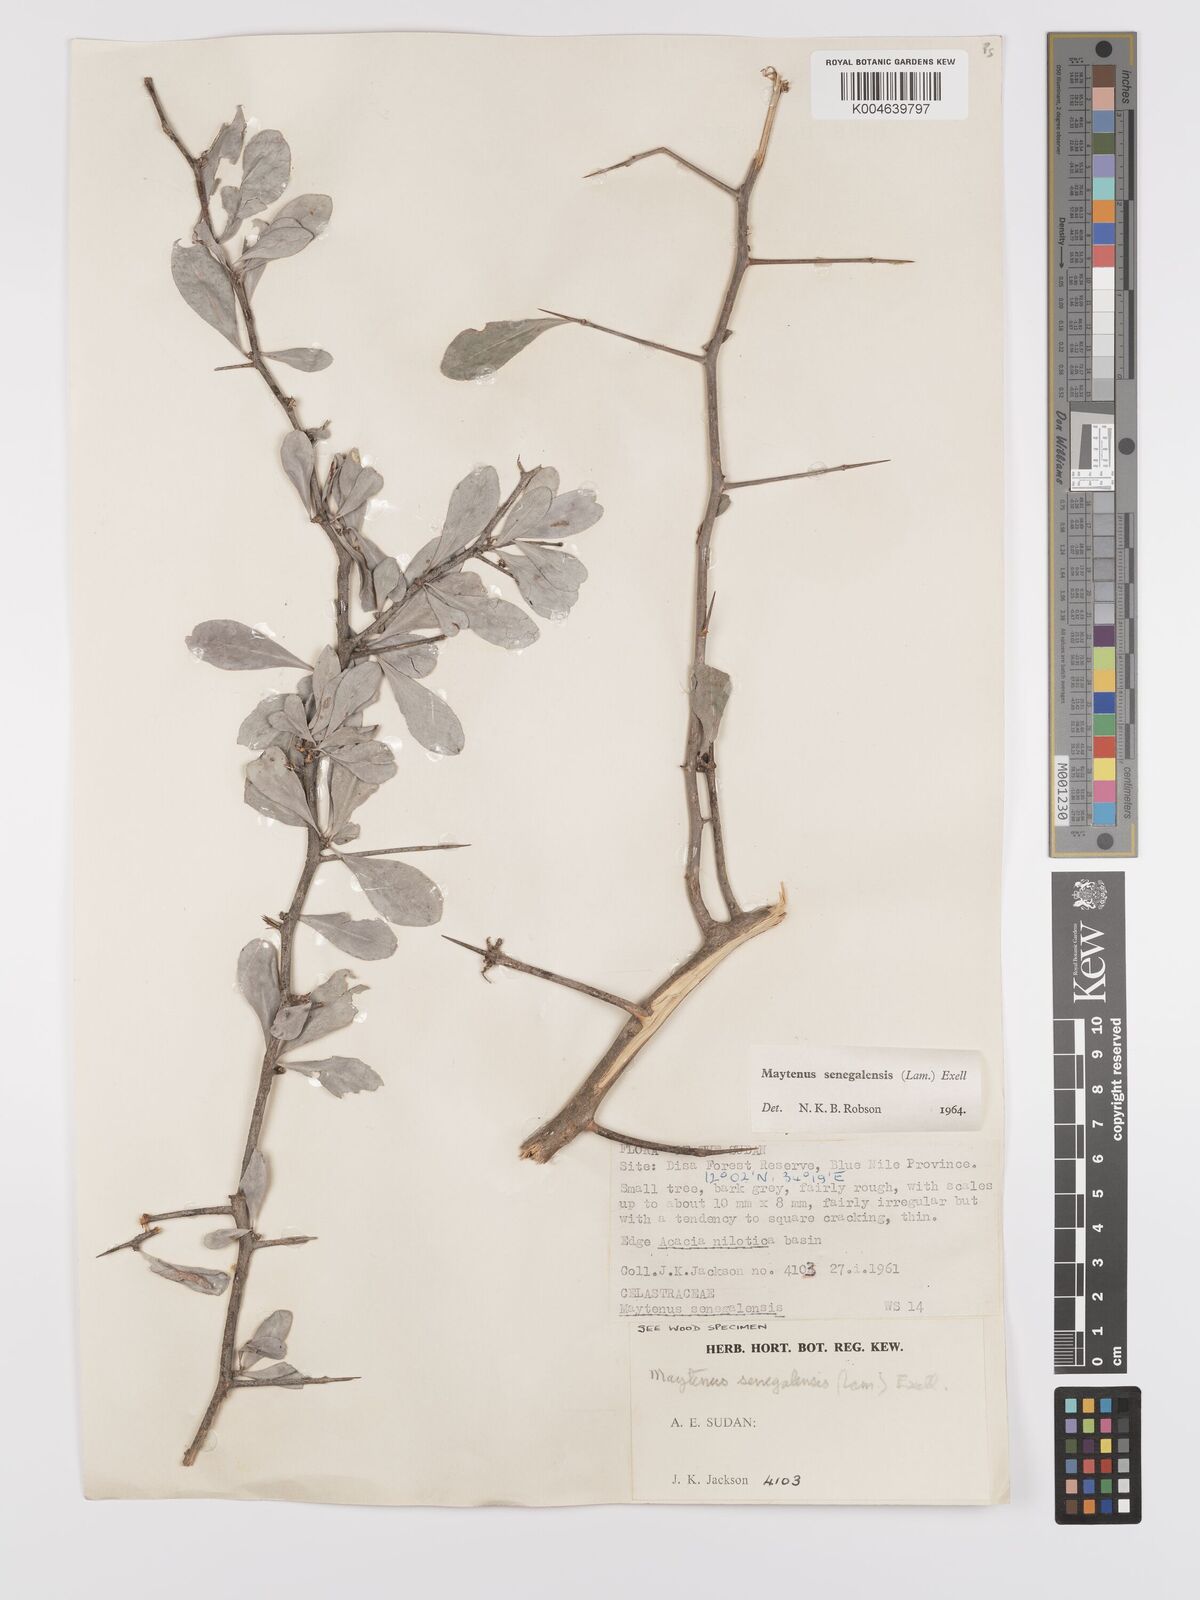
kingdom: Plantae
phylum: Tracheophyta
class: Magnoliopsida
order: Celastrales
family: Celastraceae
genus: Gymnosporia
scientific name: Gymnosporia senegalensis
